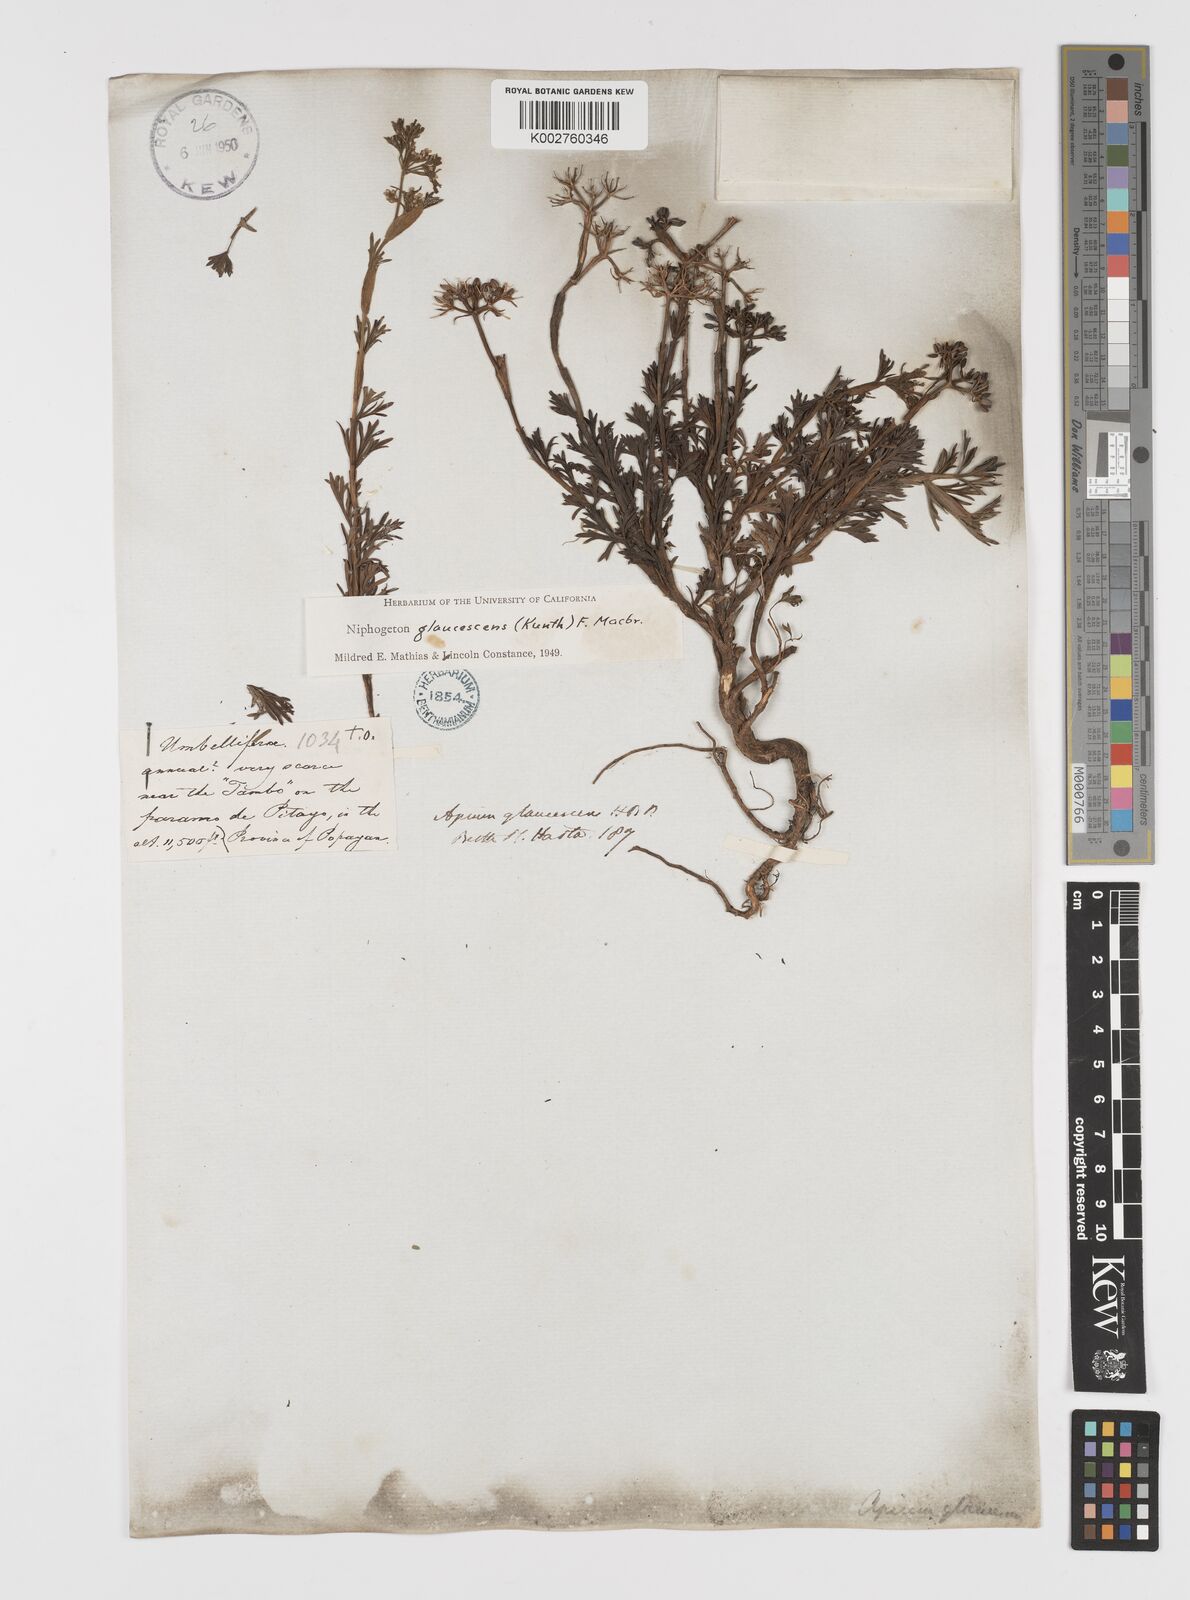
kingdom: Plantae
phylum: Tracheophyta
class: Magnoliopsida
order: Apiales
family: Apiaceae
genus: Niphogeton
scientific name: Niphogeton glaucescens
